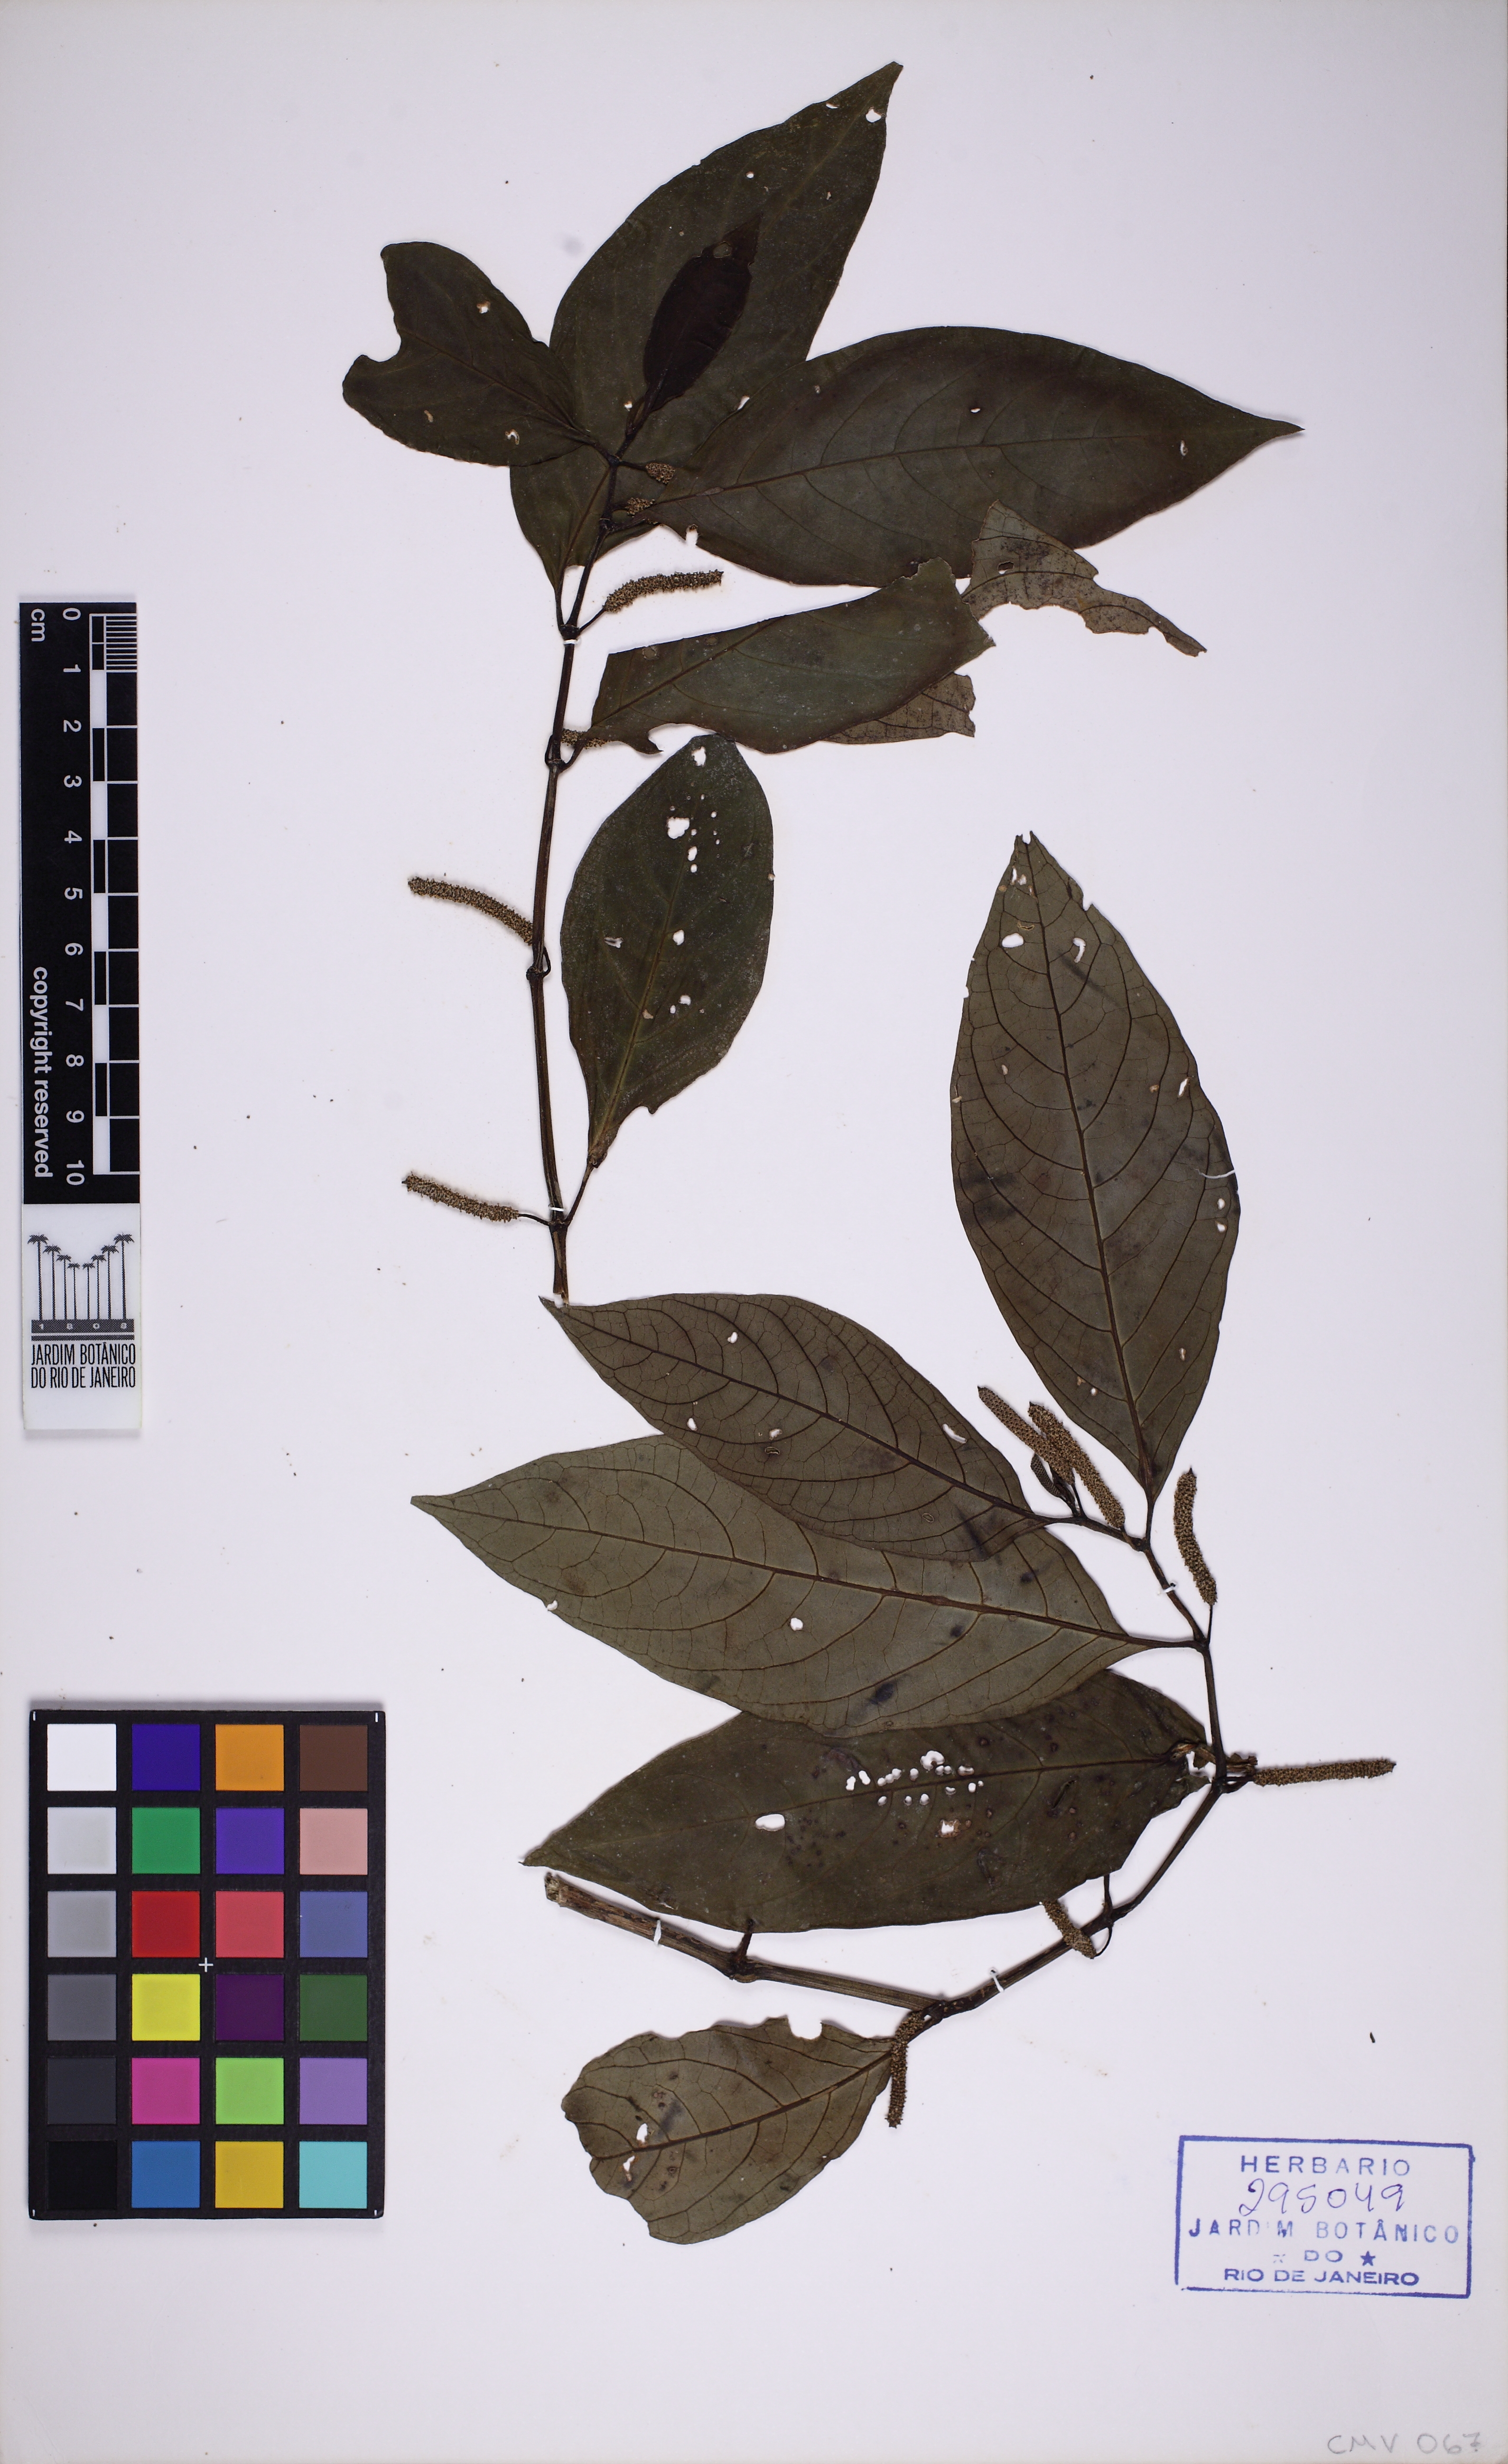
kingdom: Plantae
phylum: Tracheophyta
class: Magnoliopsida
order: Piperales
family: Piperaceae
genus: Piper
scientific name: Piper jubimarginatum
